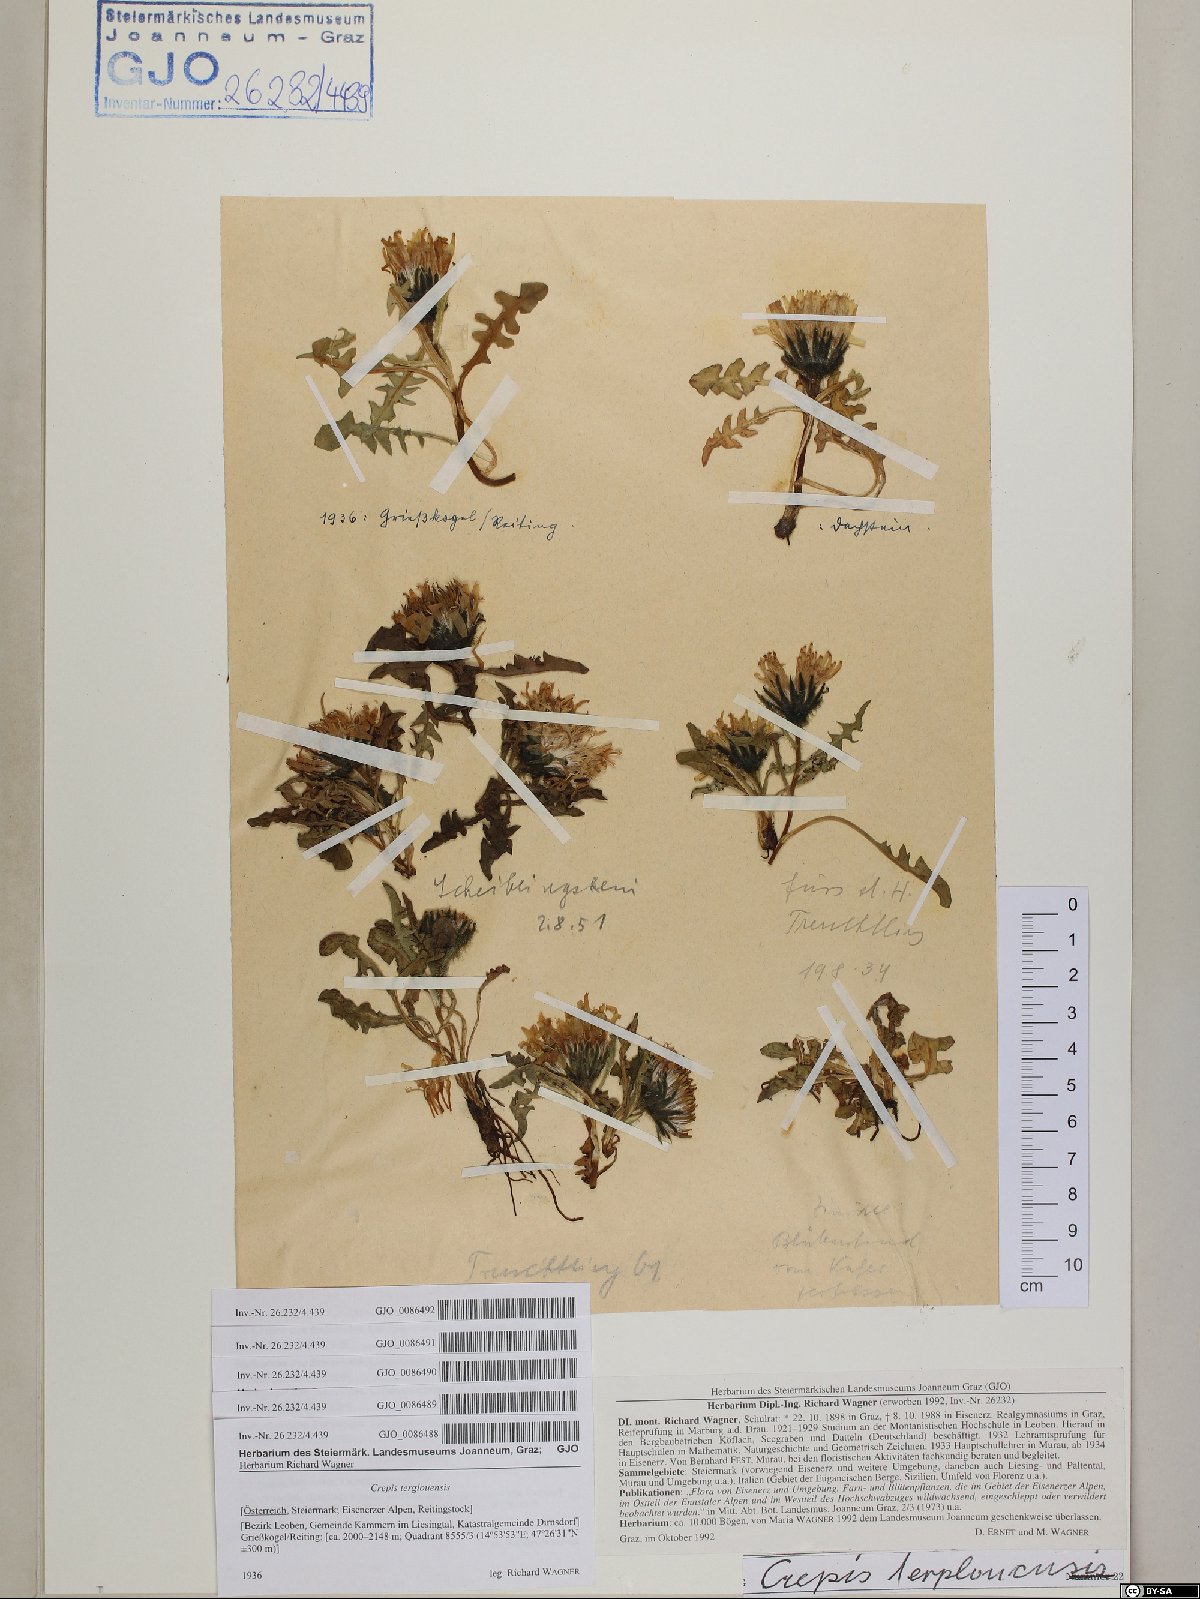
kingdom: Plantae
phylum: Tracheophyta
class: Magnoliopsida
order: Asterales
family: Asteraceae
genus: Crepis
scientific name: Crepis terglouensis
